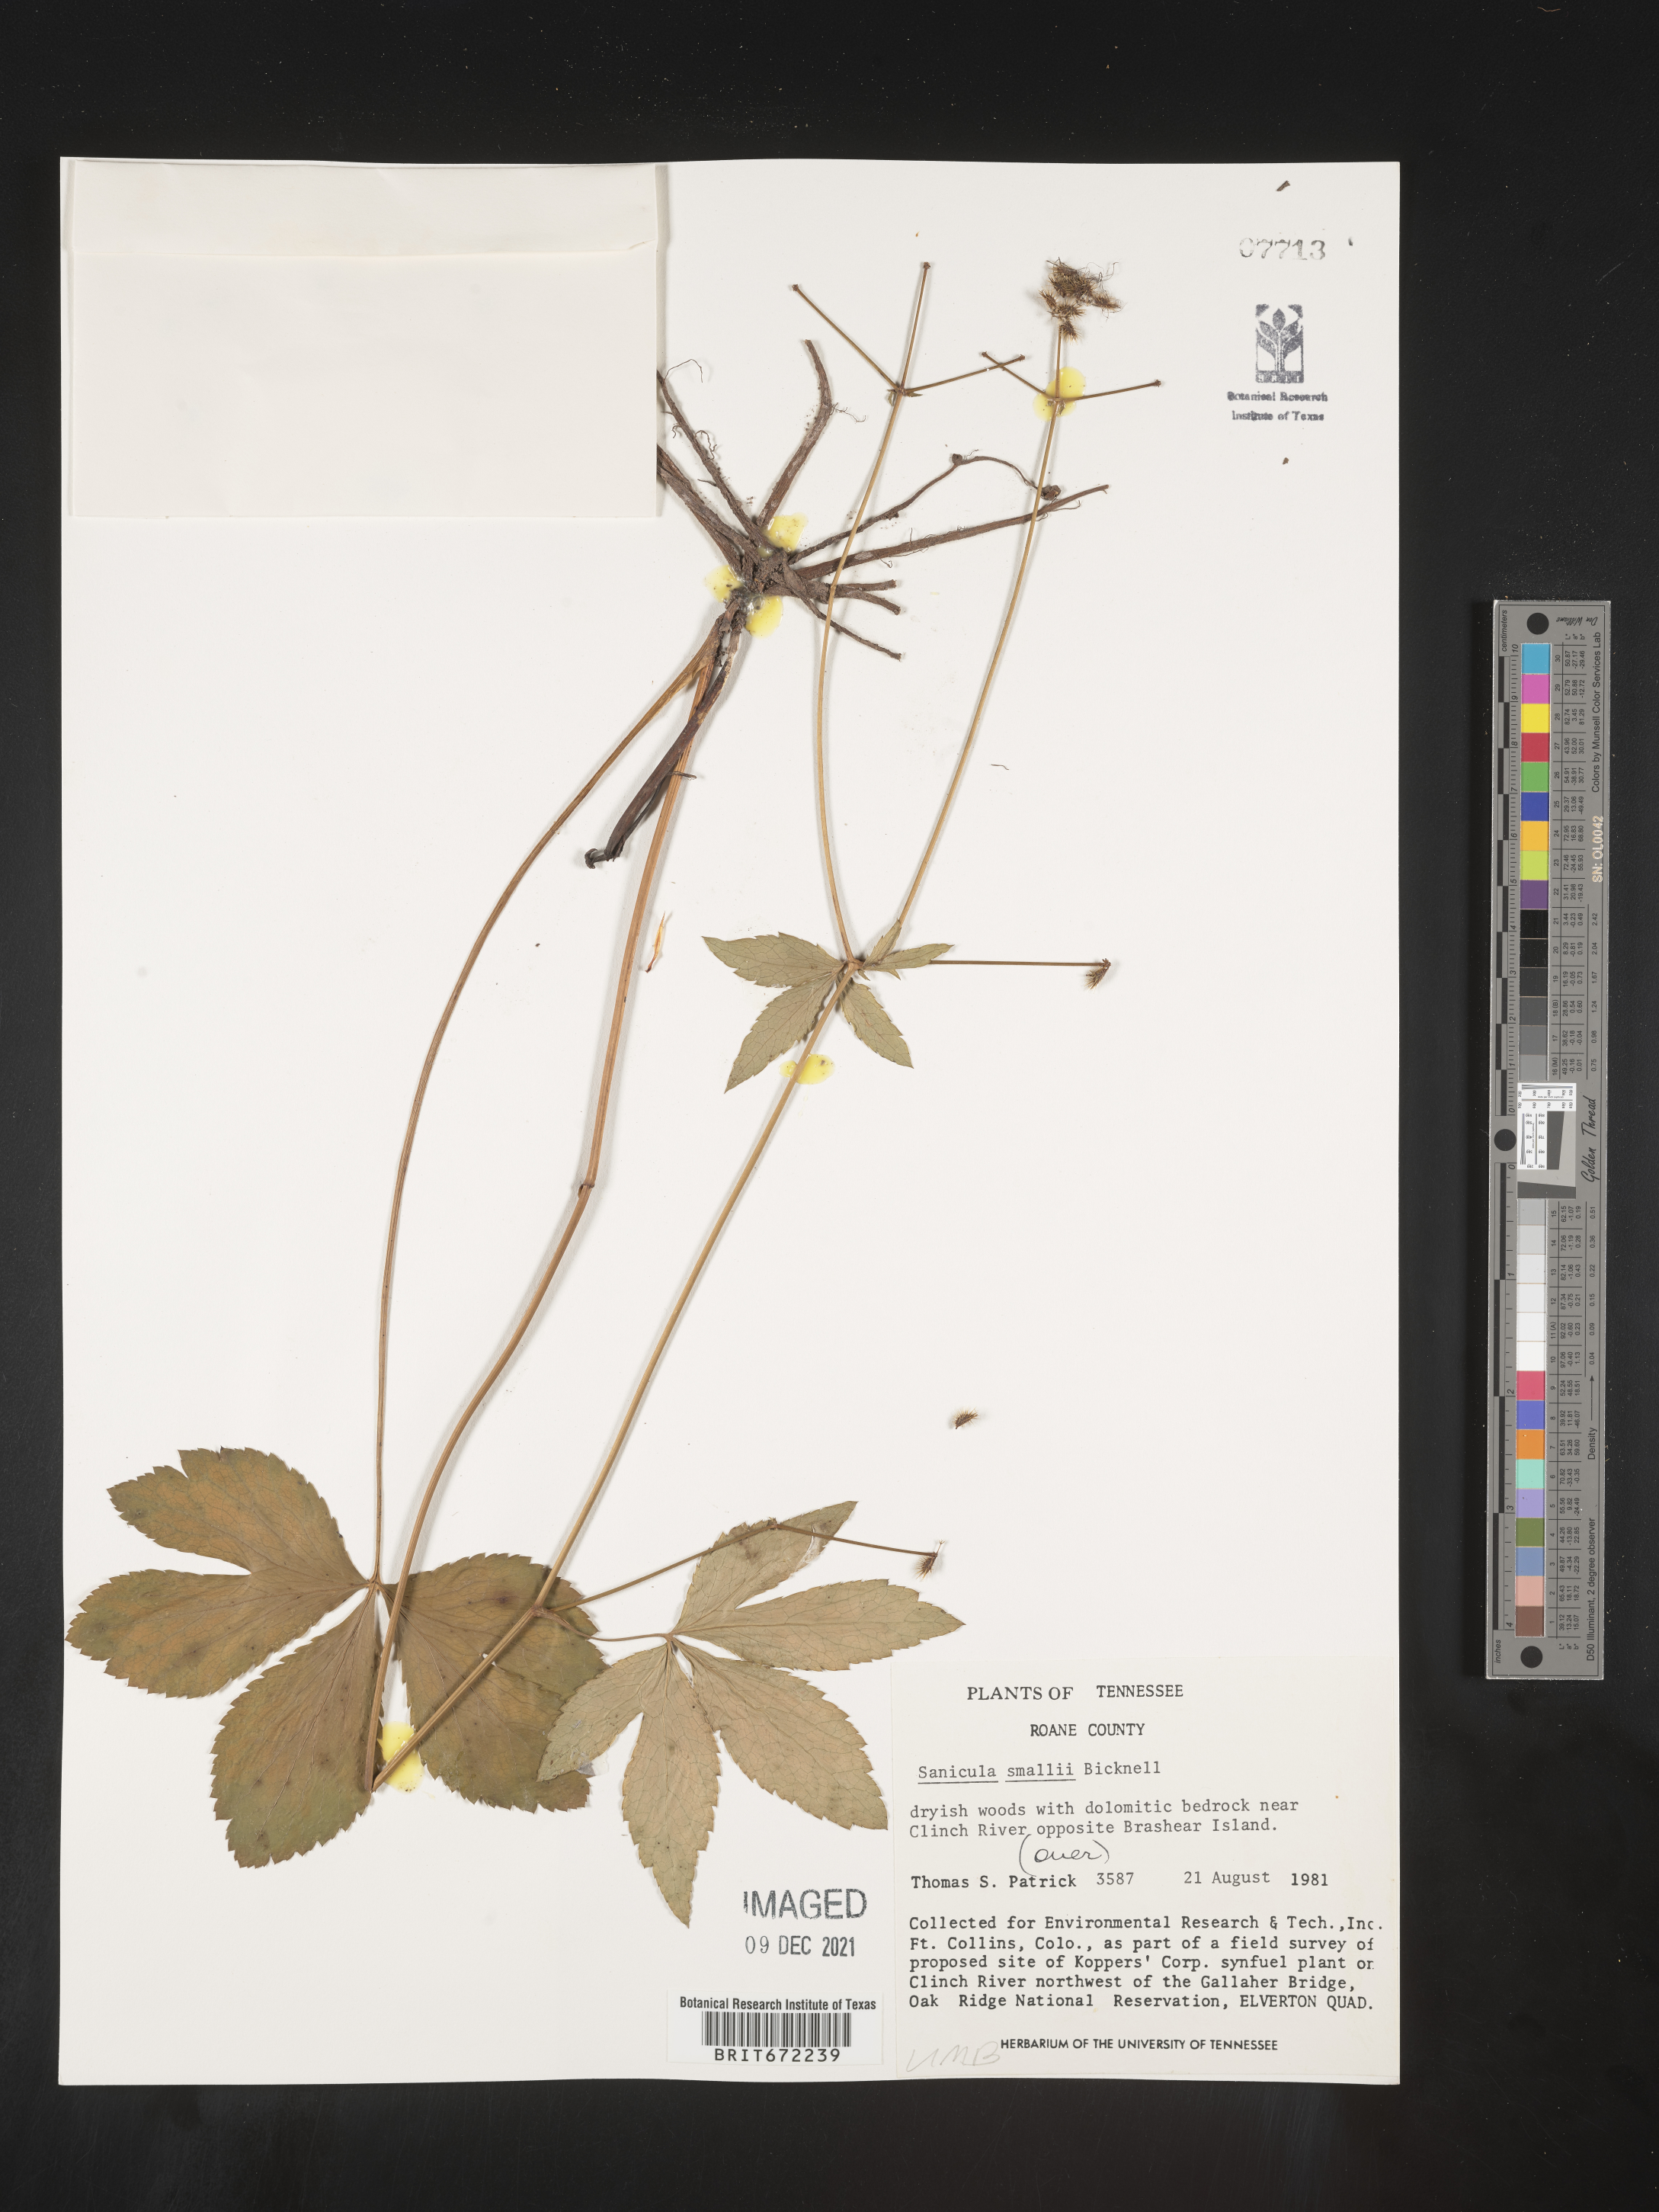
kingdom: Plantae
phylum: Tracheophyta
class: Magnoliopsida
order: Apiales
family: Apiaceae
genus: Sanicula
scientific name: Sanicula
